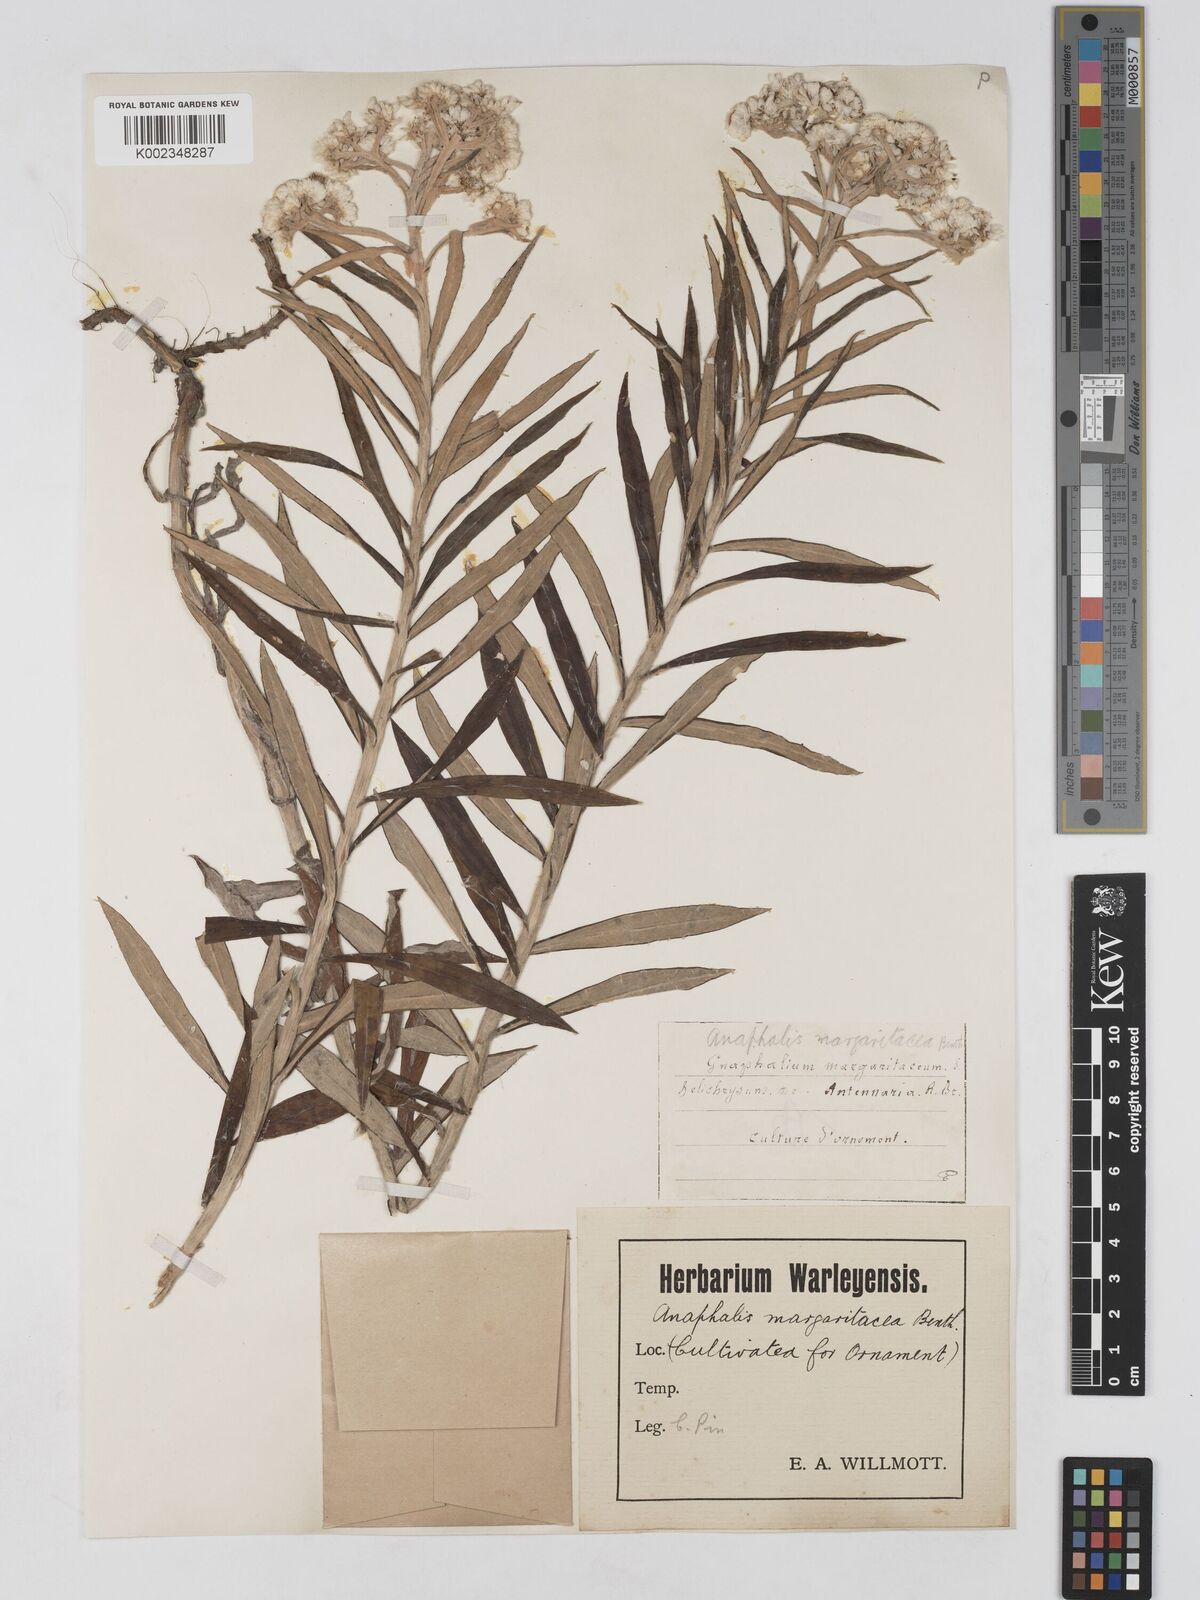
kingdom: Plantae
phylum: Tracheophyta
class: Magnoliopsida
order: Asterales
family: Asteraceae
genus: Anaphalis
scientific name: Anaphalis margaritacea
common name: Pearly everlasting
